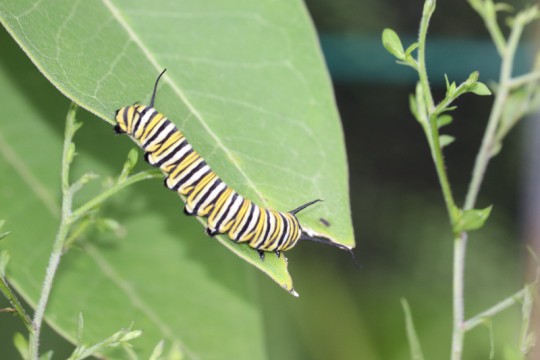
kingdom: Animalia
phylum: Arthropoda
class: Insecta
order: Lepidoptera
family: Nymphalidae
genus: Danaus
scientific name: Danaus plexippus
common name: Monarch
